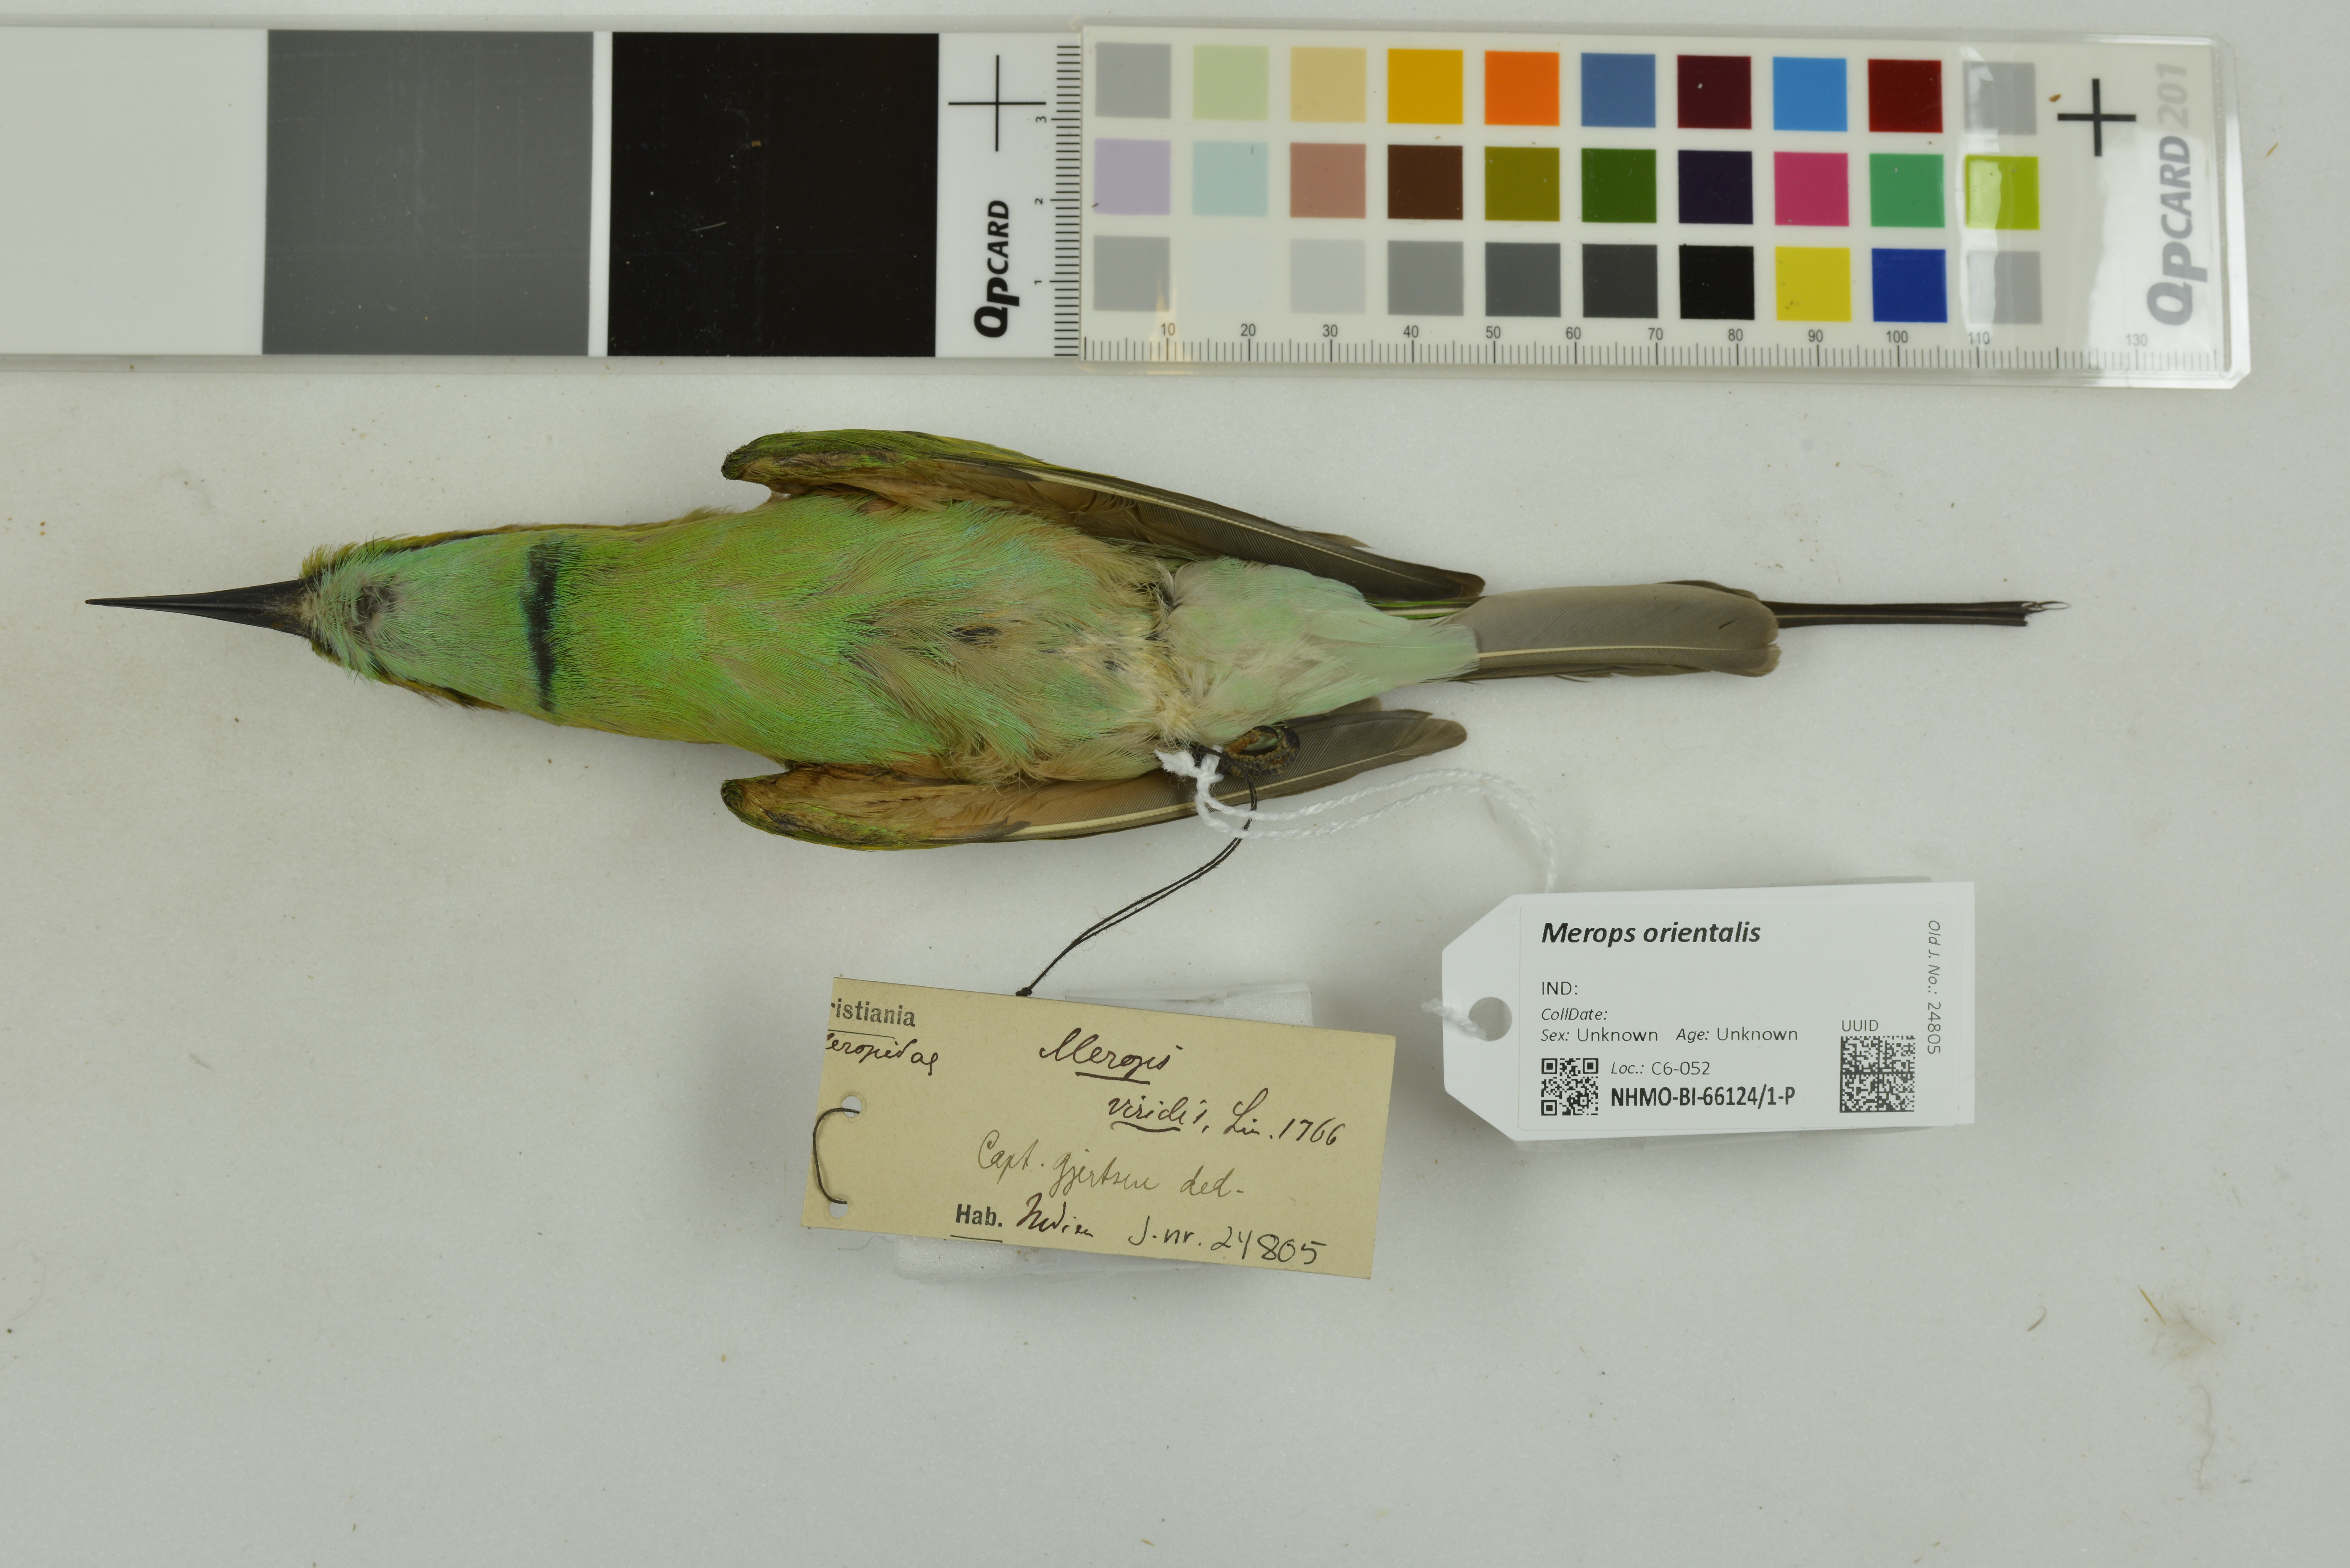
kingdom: Animalia
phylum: Chordata
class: Aves
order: Coraciiformes
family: Meropidae
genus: Merops
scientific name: Merops orientalis
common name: Green bee-eater
